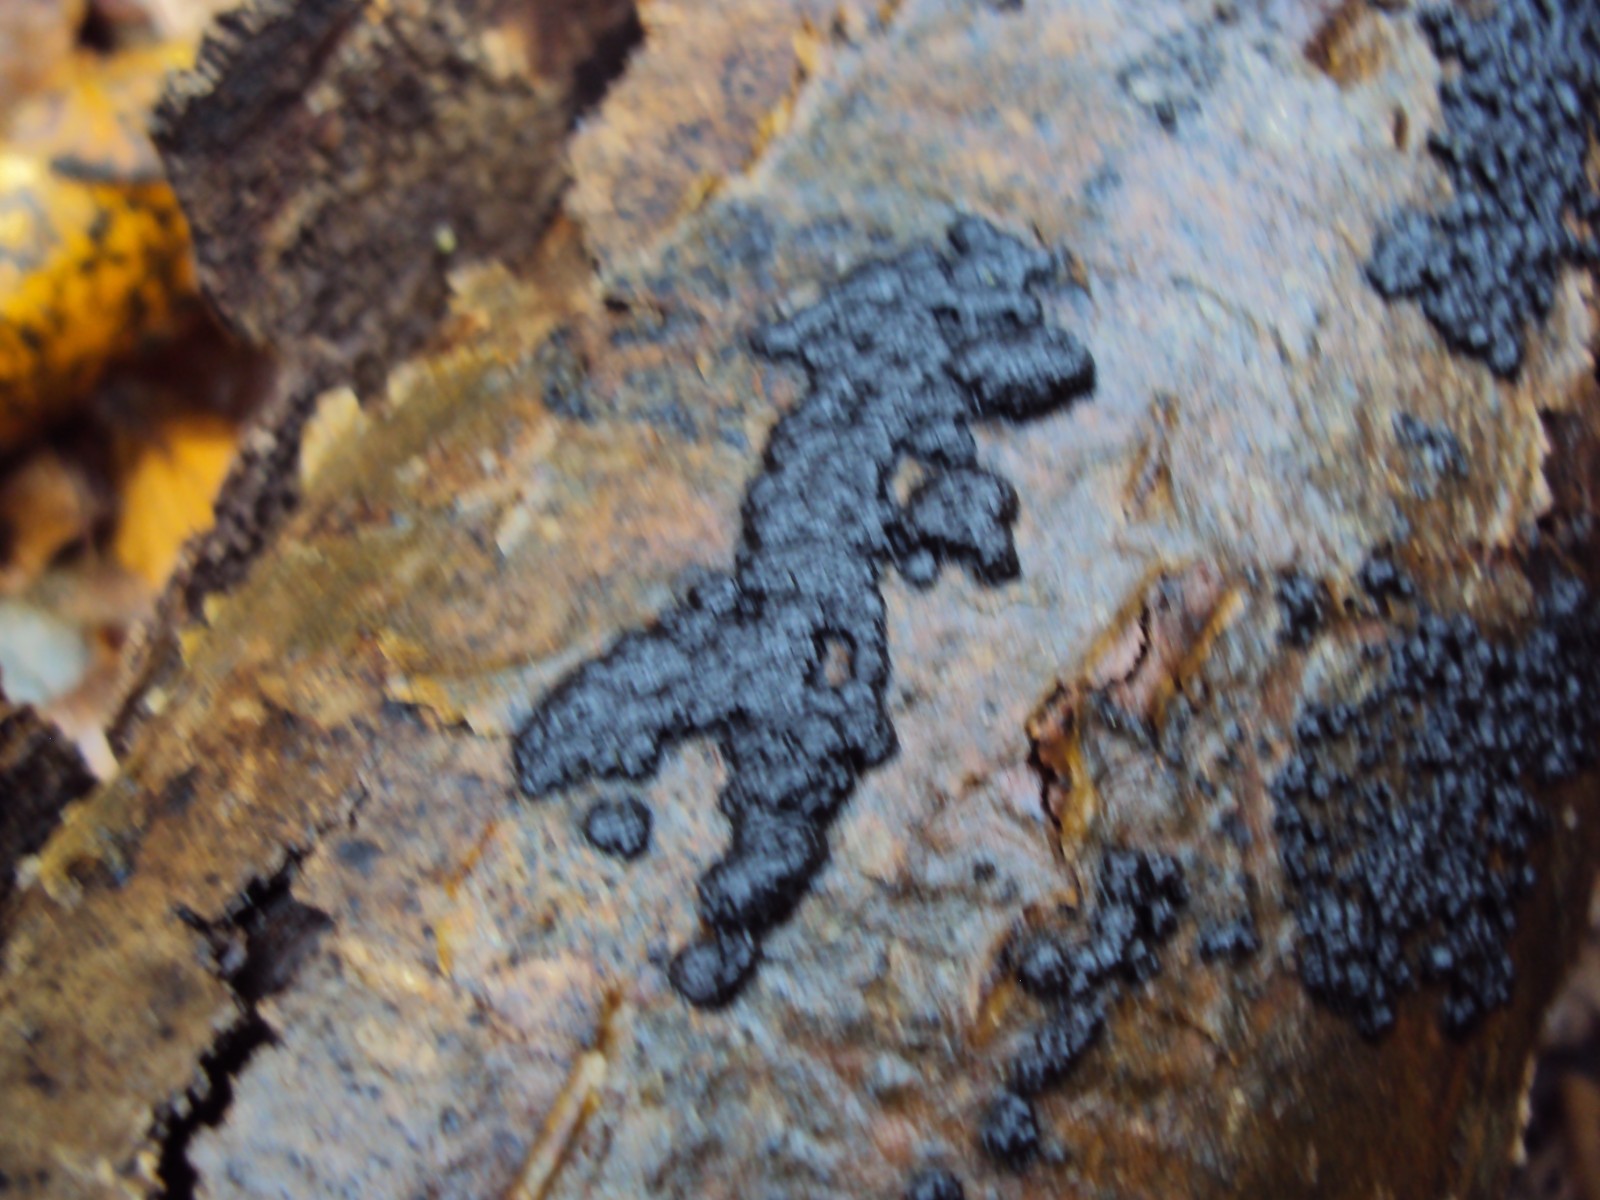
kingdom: Fungi
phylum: Ascomycota
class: Sordariomycetes
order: Xylariales
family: Hypoxylaceae
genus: Jackrogersella
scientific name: Jackrogersella cohaerens
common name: sammenflydende kulbær
